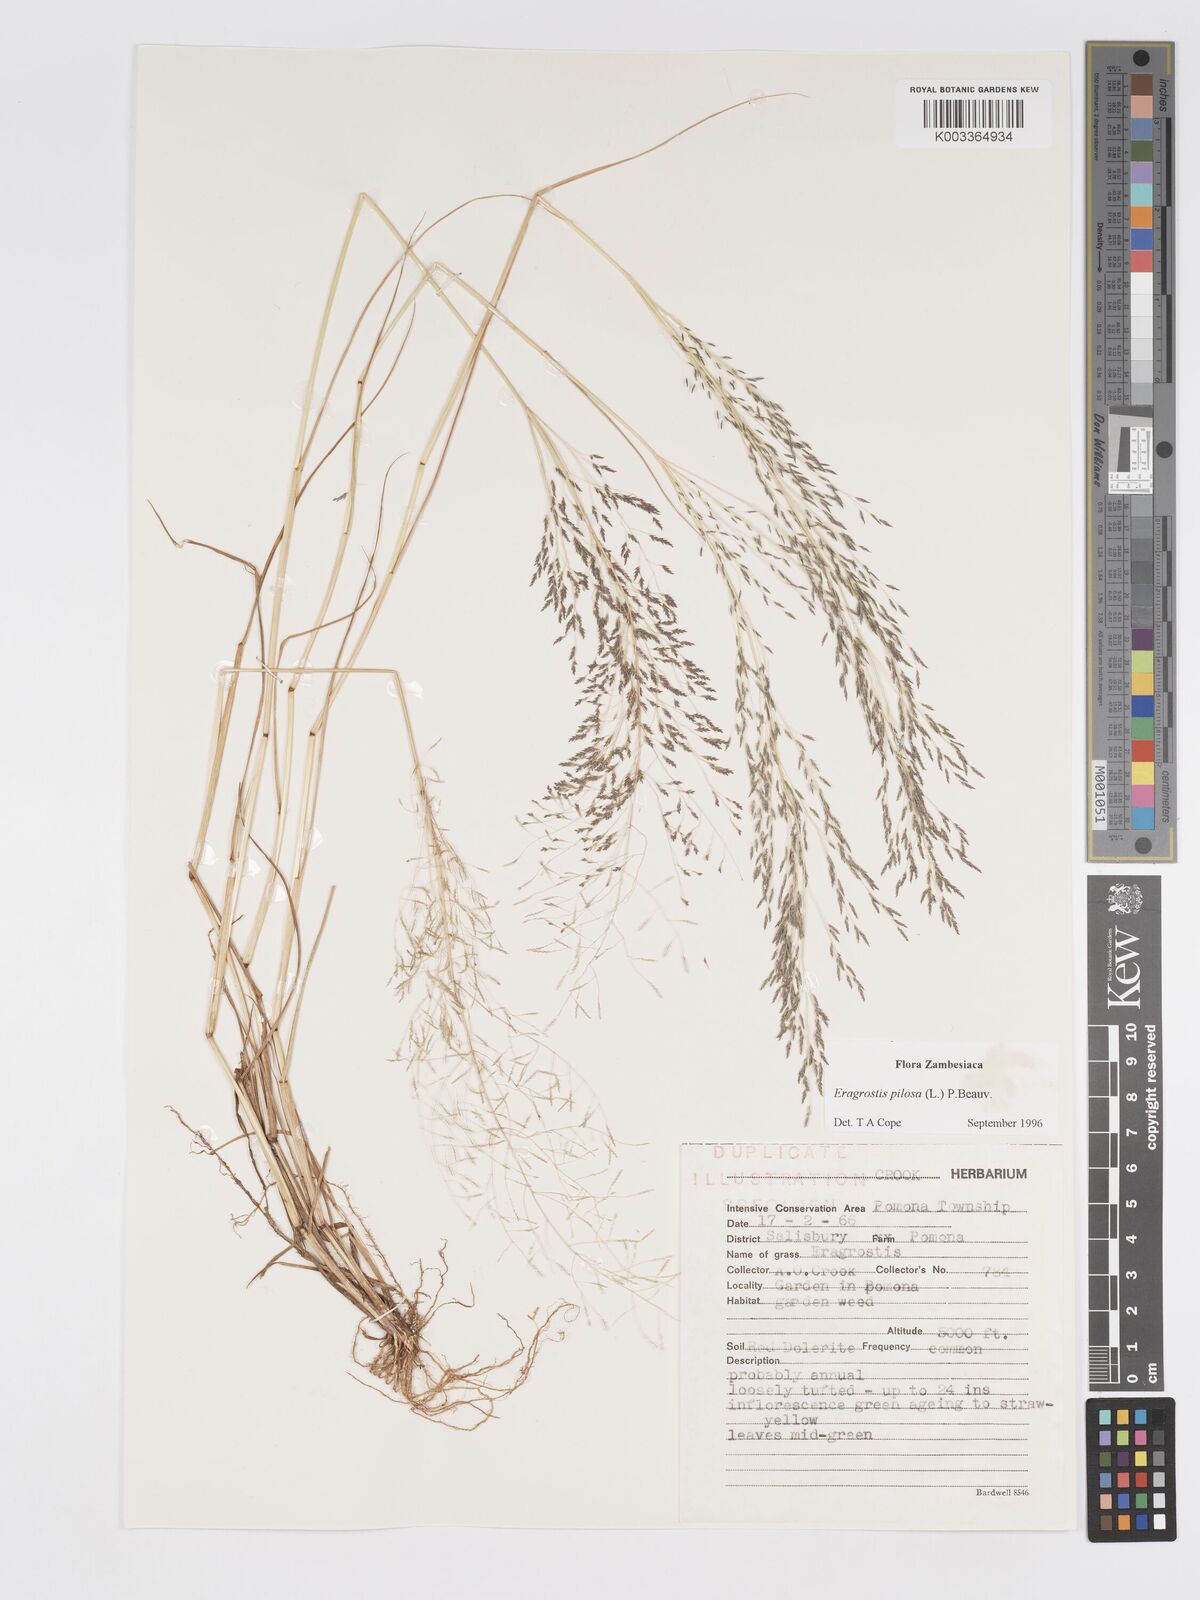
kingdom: Plantae
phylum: Tracheophyta
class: Liliopsida
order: Poales
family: Poaceae
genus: Eragrostis
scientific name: Eragrostis pilosa
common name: Indian lovegrass
